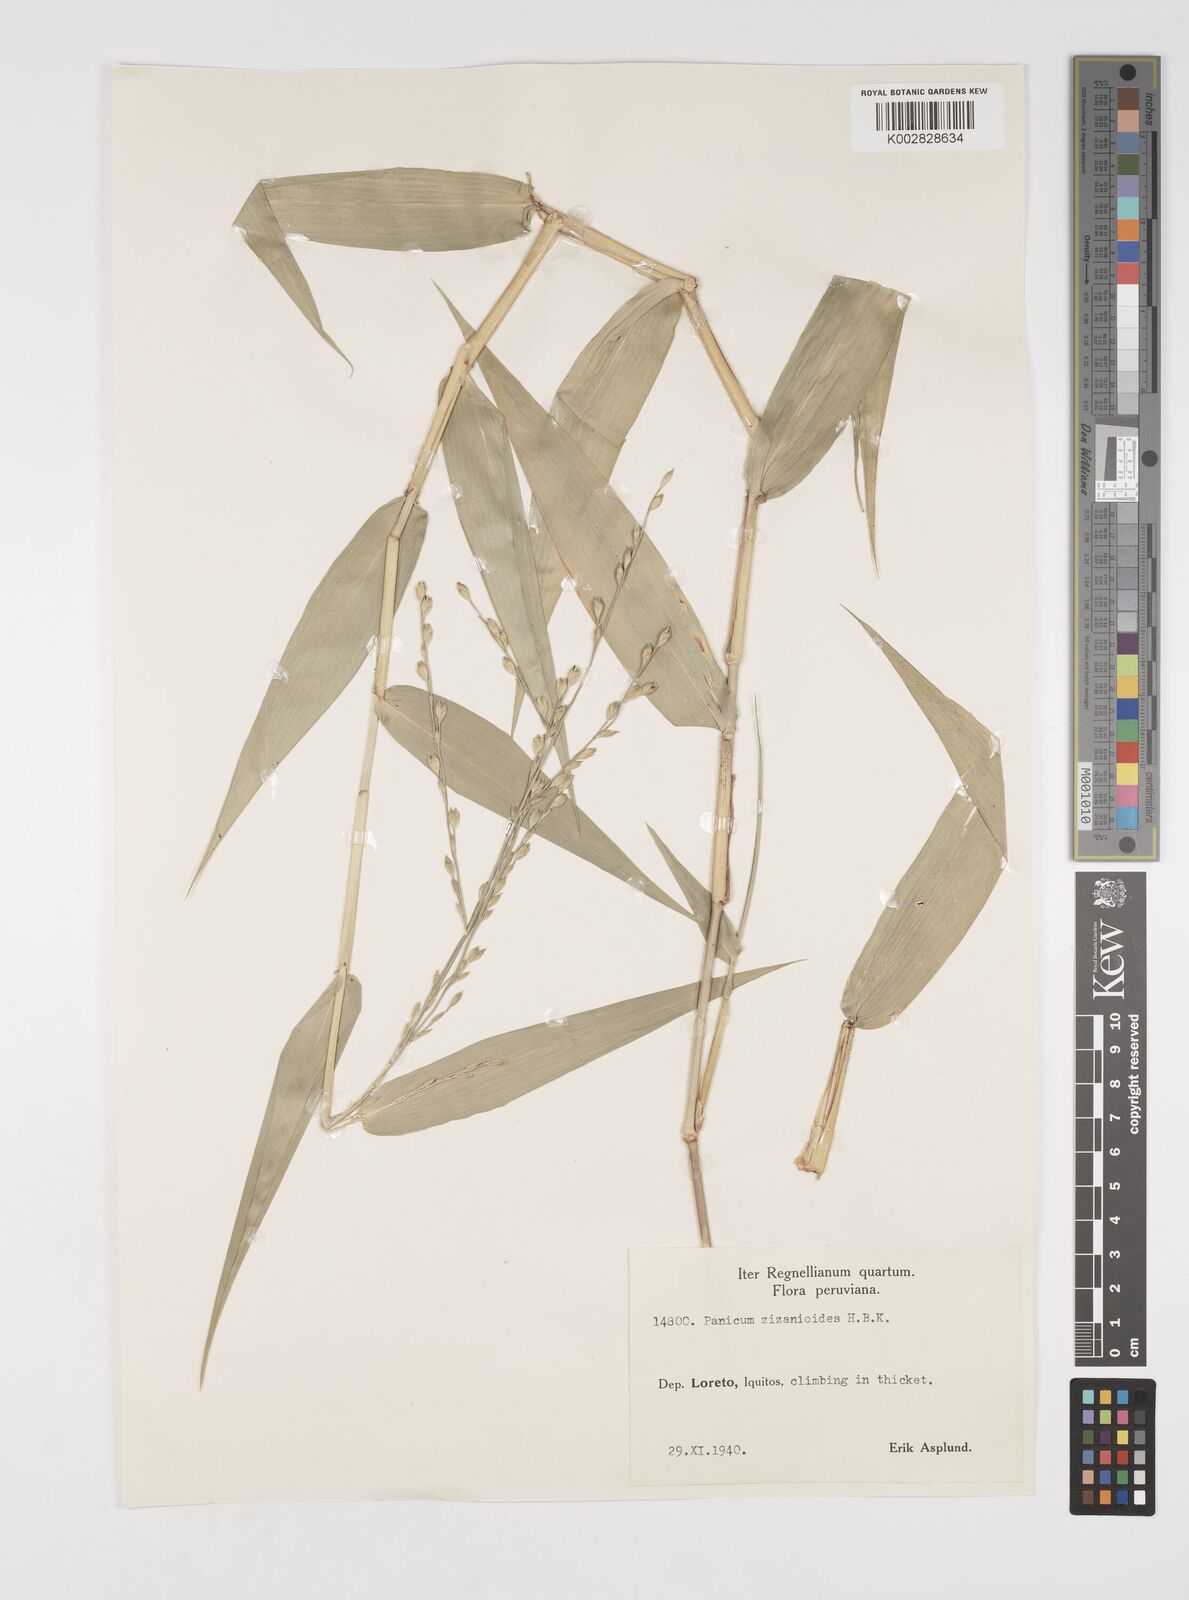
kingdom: Plantae
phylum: Tracheophyta
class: Liliopsida
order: Poales
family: Poaceae
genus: Acroceras
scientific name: Acroceras zizanioides
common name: Oat grass
